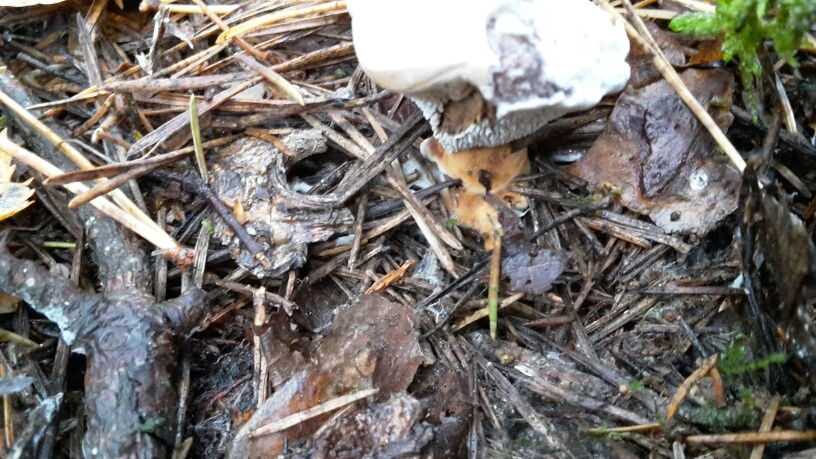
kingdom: Fungi
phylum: Basidiomycota
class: Agaricomycetes
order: Thelephorales
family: Bankeraceae
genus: Hydnellum
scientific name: Hydnellum aurantiacum
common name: orange korkpigsvamp
